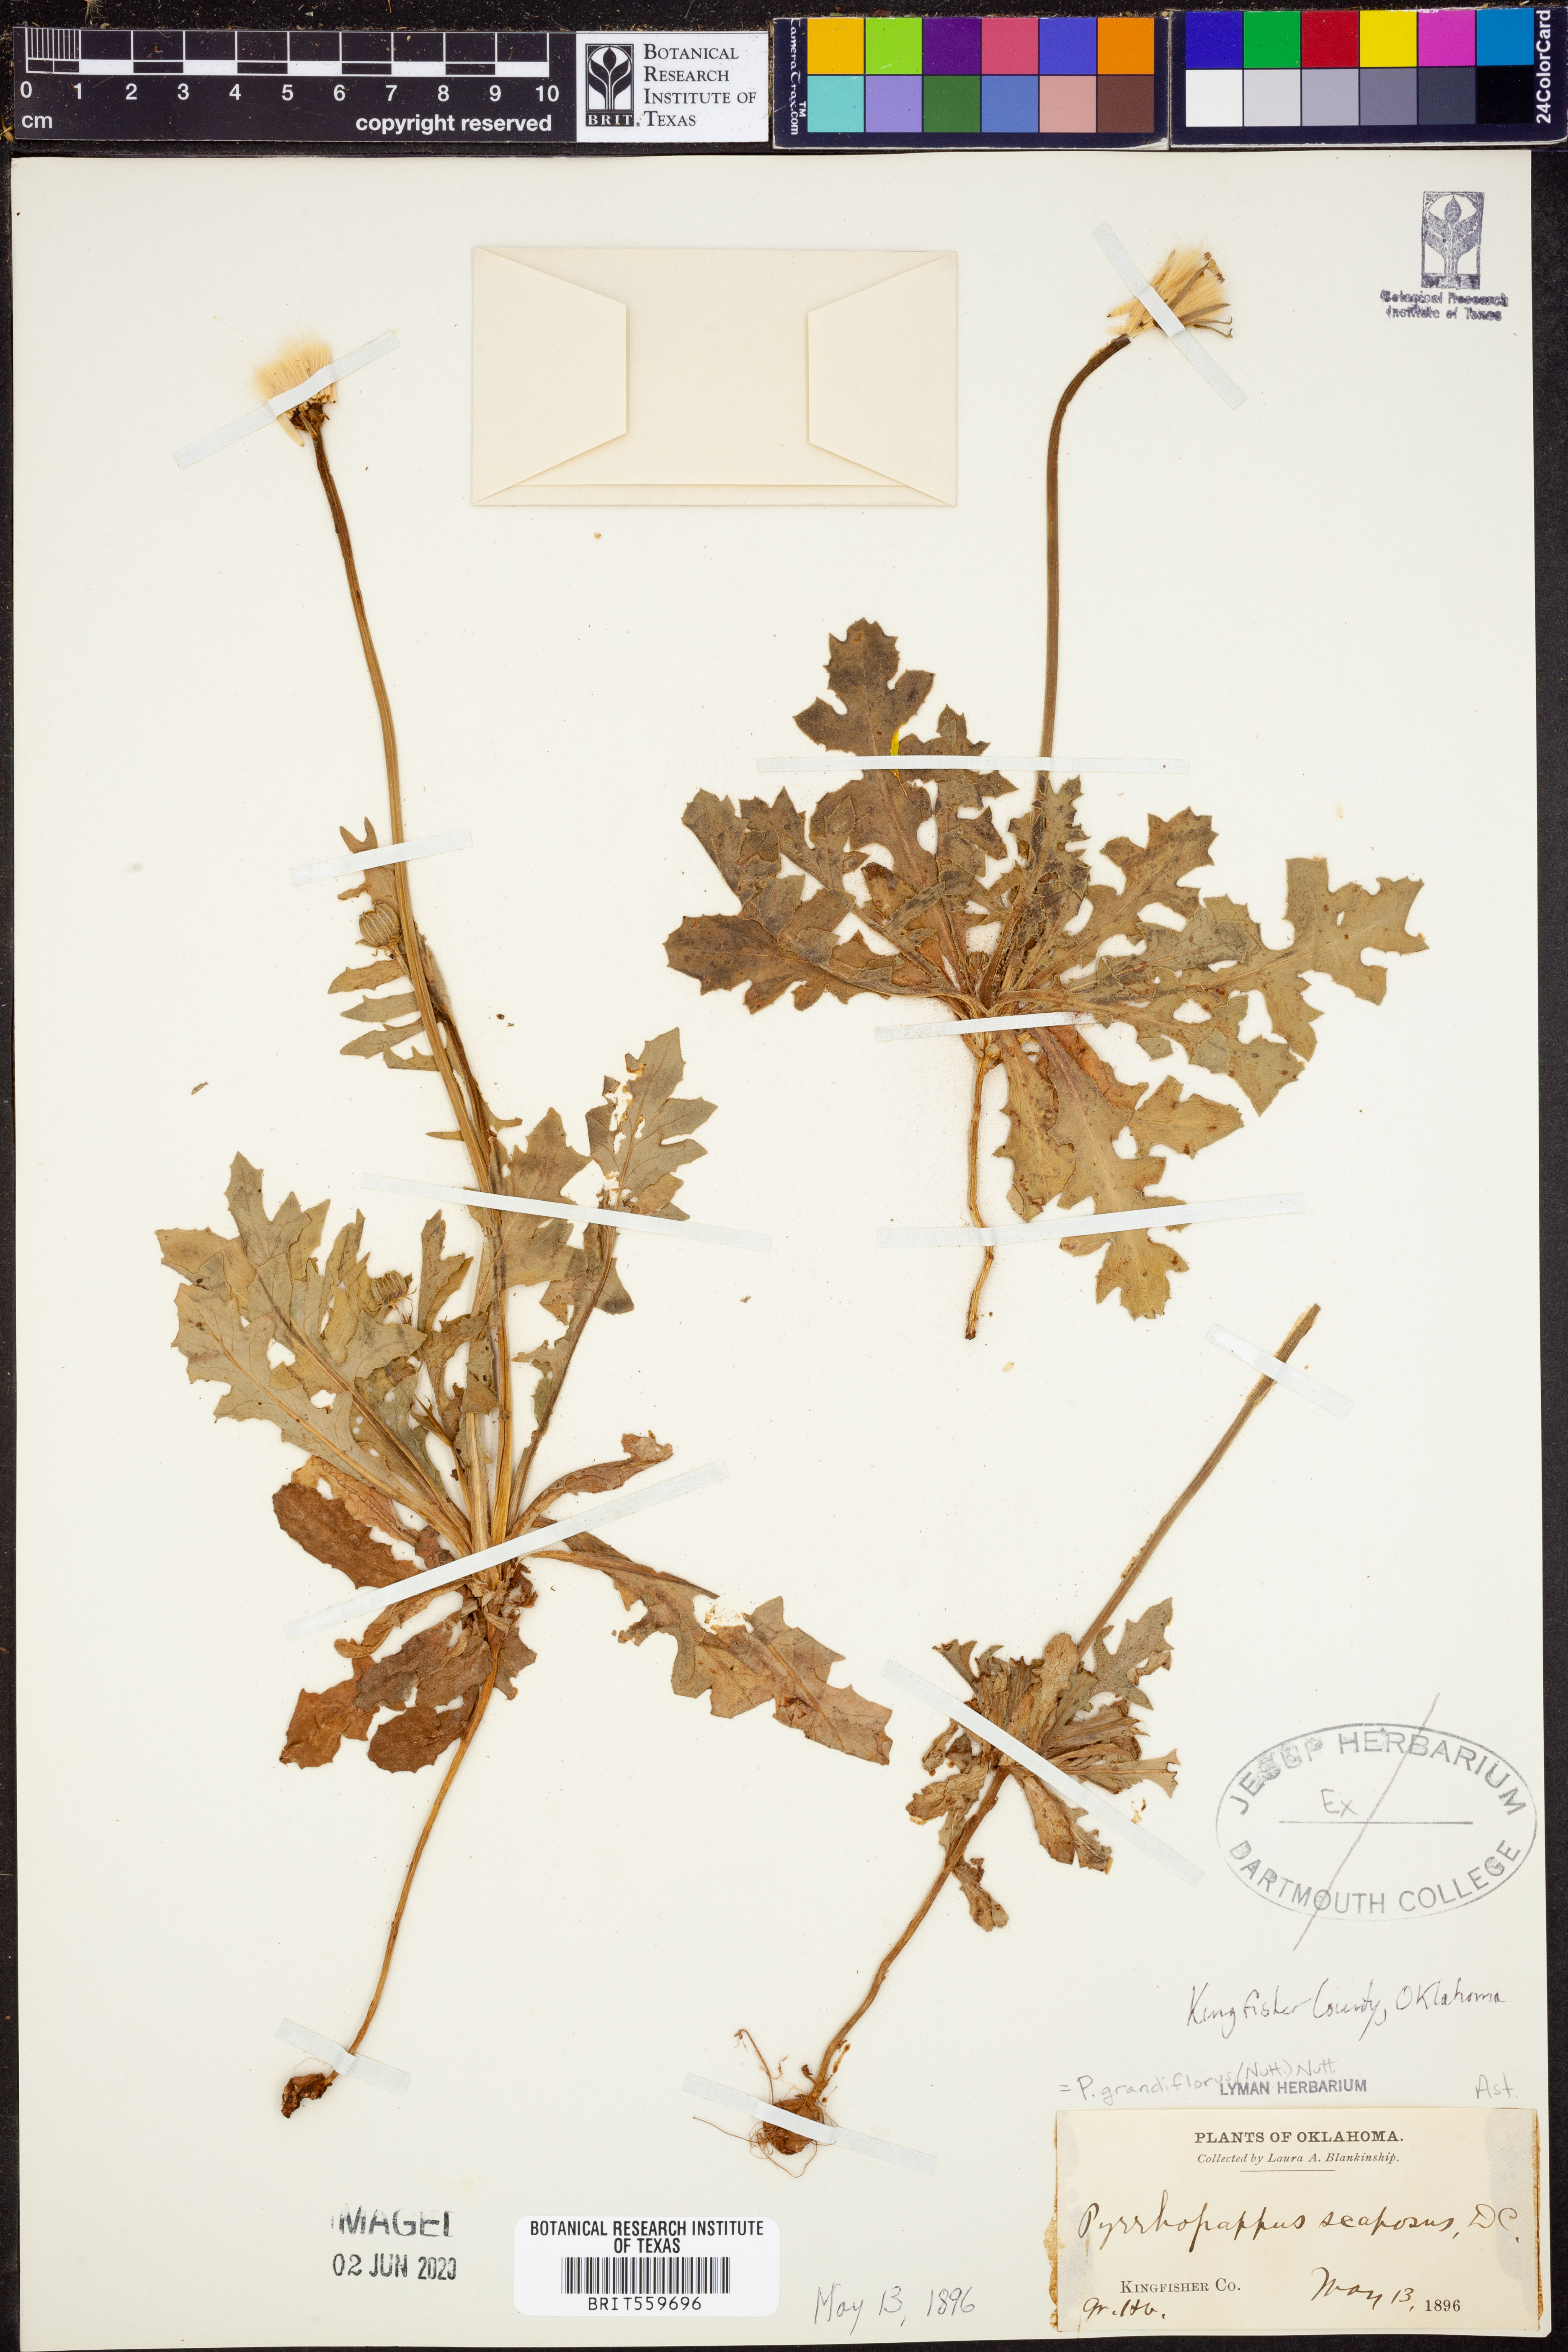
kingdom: Plantae
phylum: Tracheophyta
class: Magnoliopsida
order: Asterales
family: Asteraceae
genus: Pyrrhopappus
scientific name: Pyrrhopappus grandiflorus
